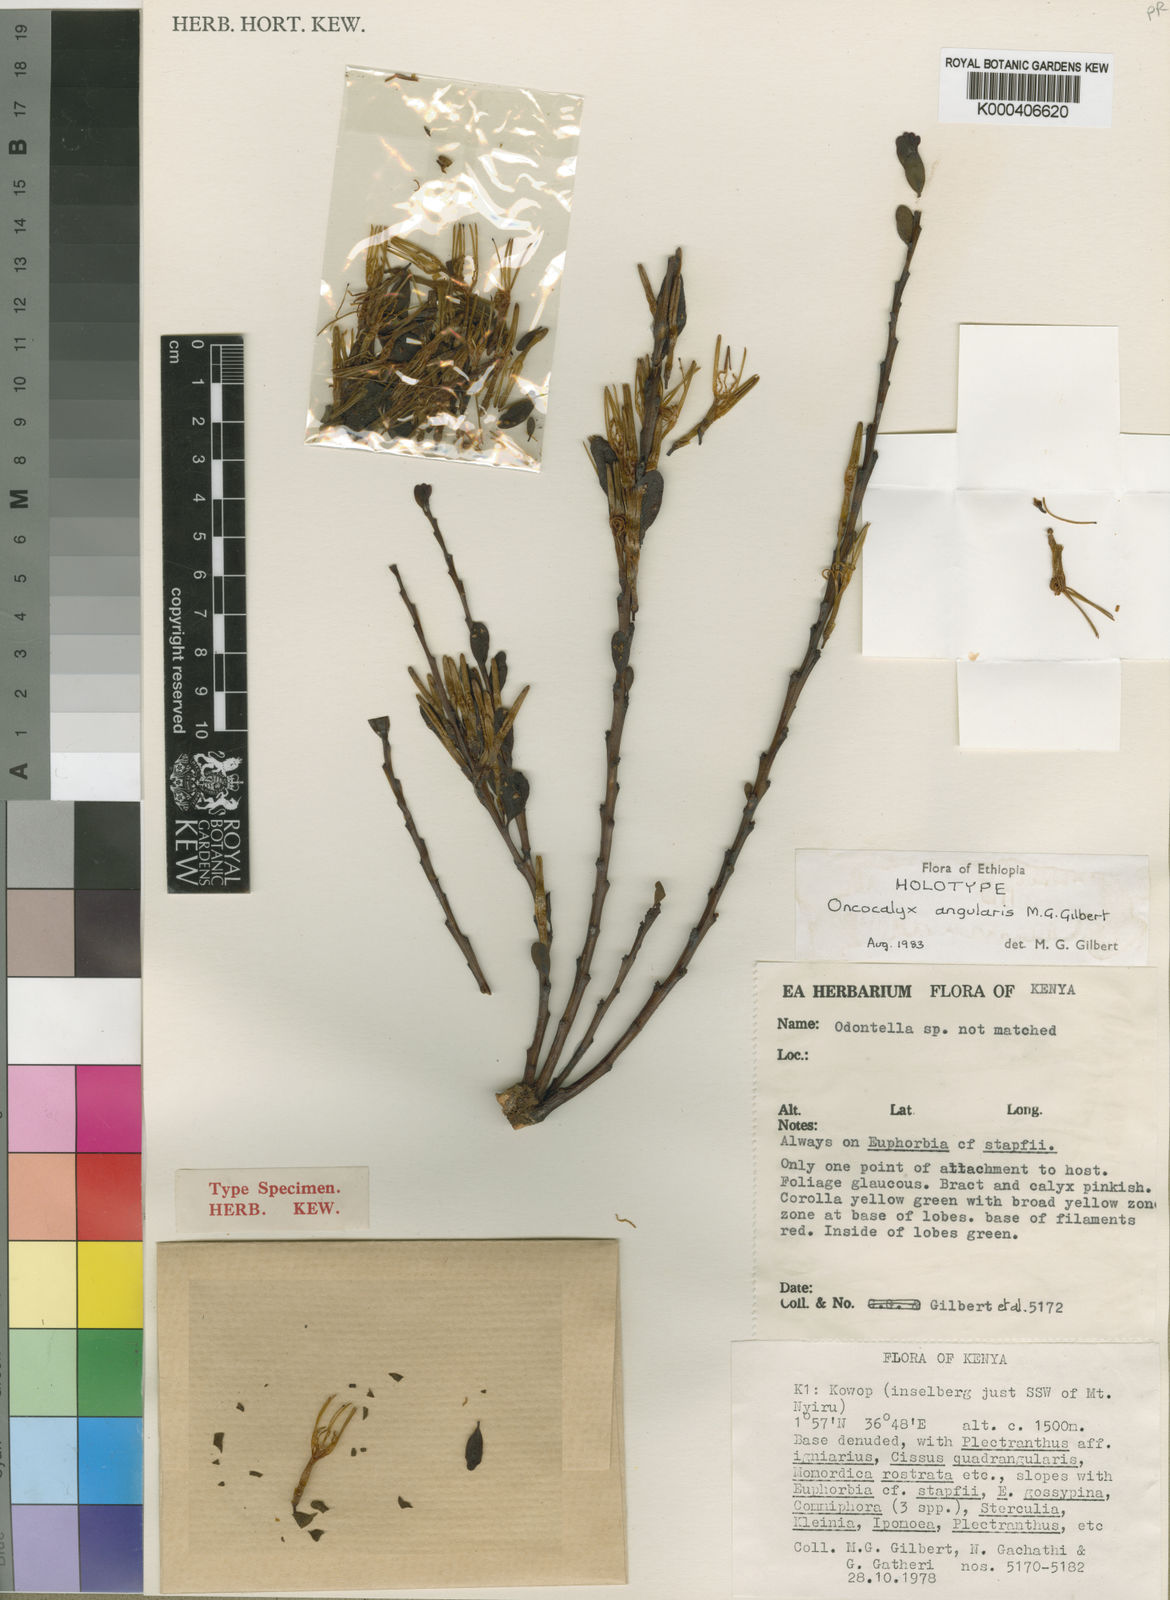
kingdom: Plantae
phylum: Tracheophyta
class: Magnoliopsida
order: Santalales
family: Loranthaceae
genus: Oncocalyx
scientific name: Oncocalyx angularis
